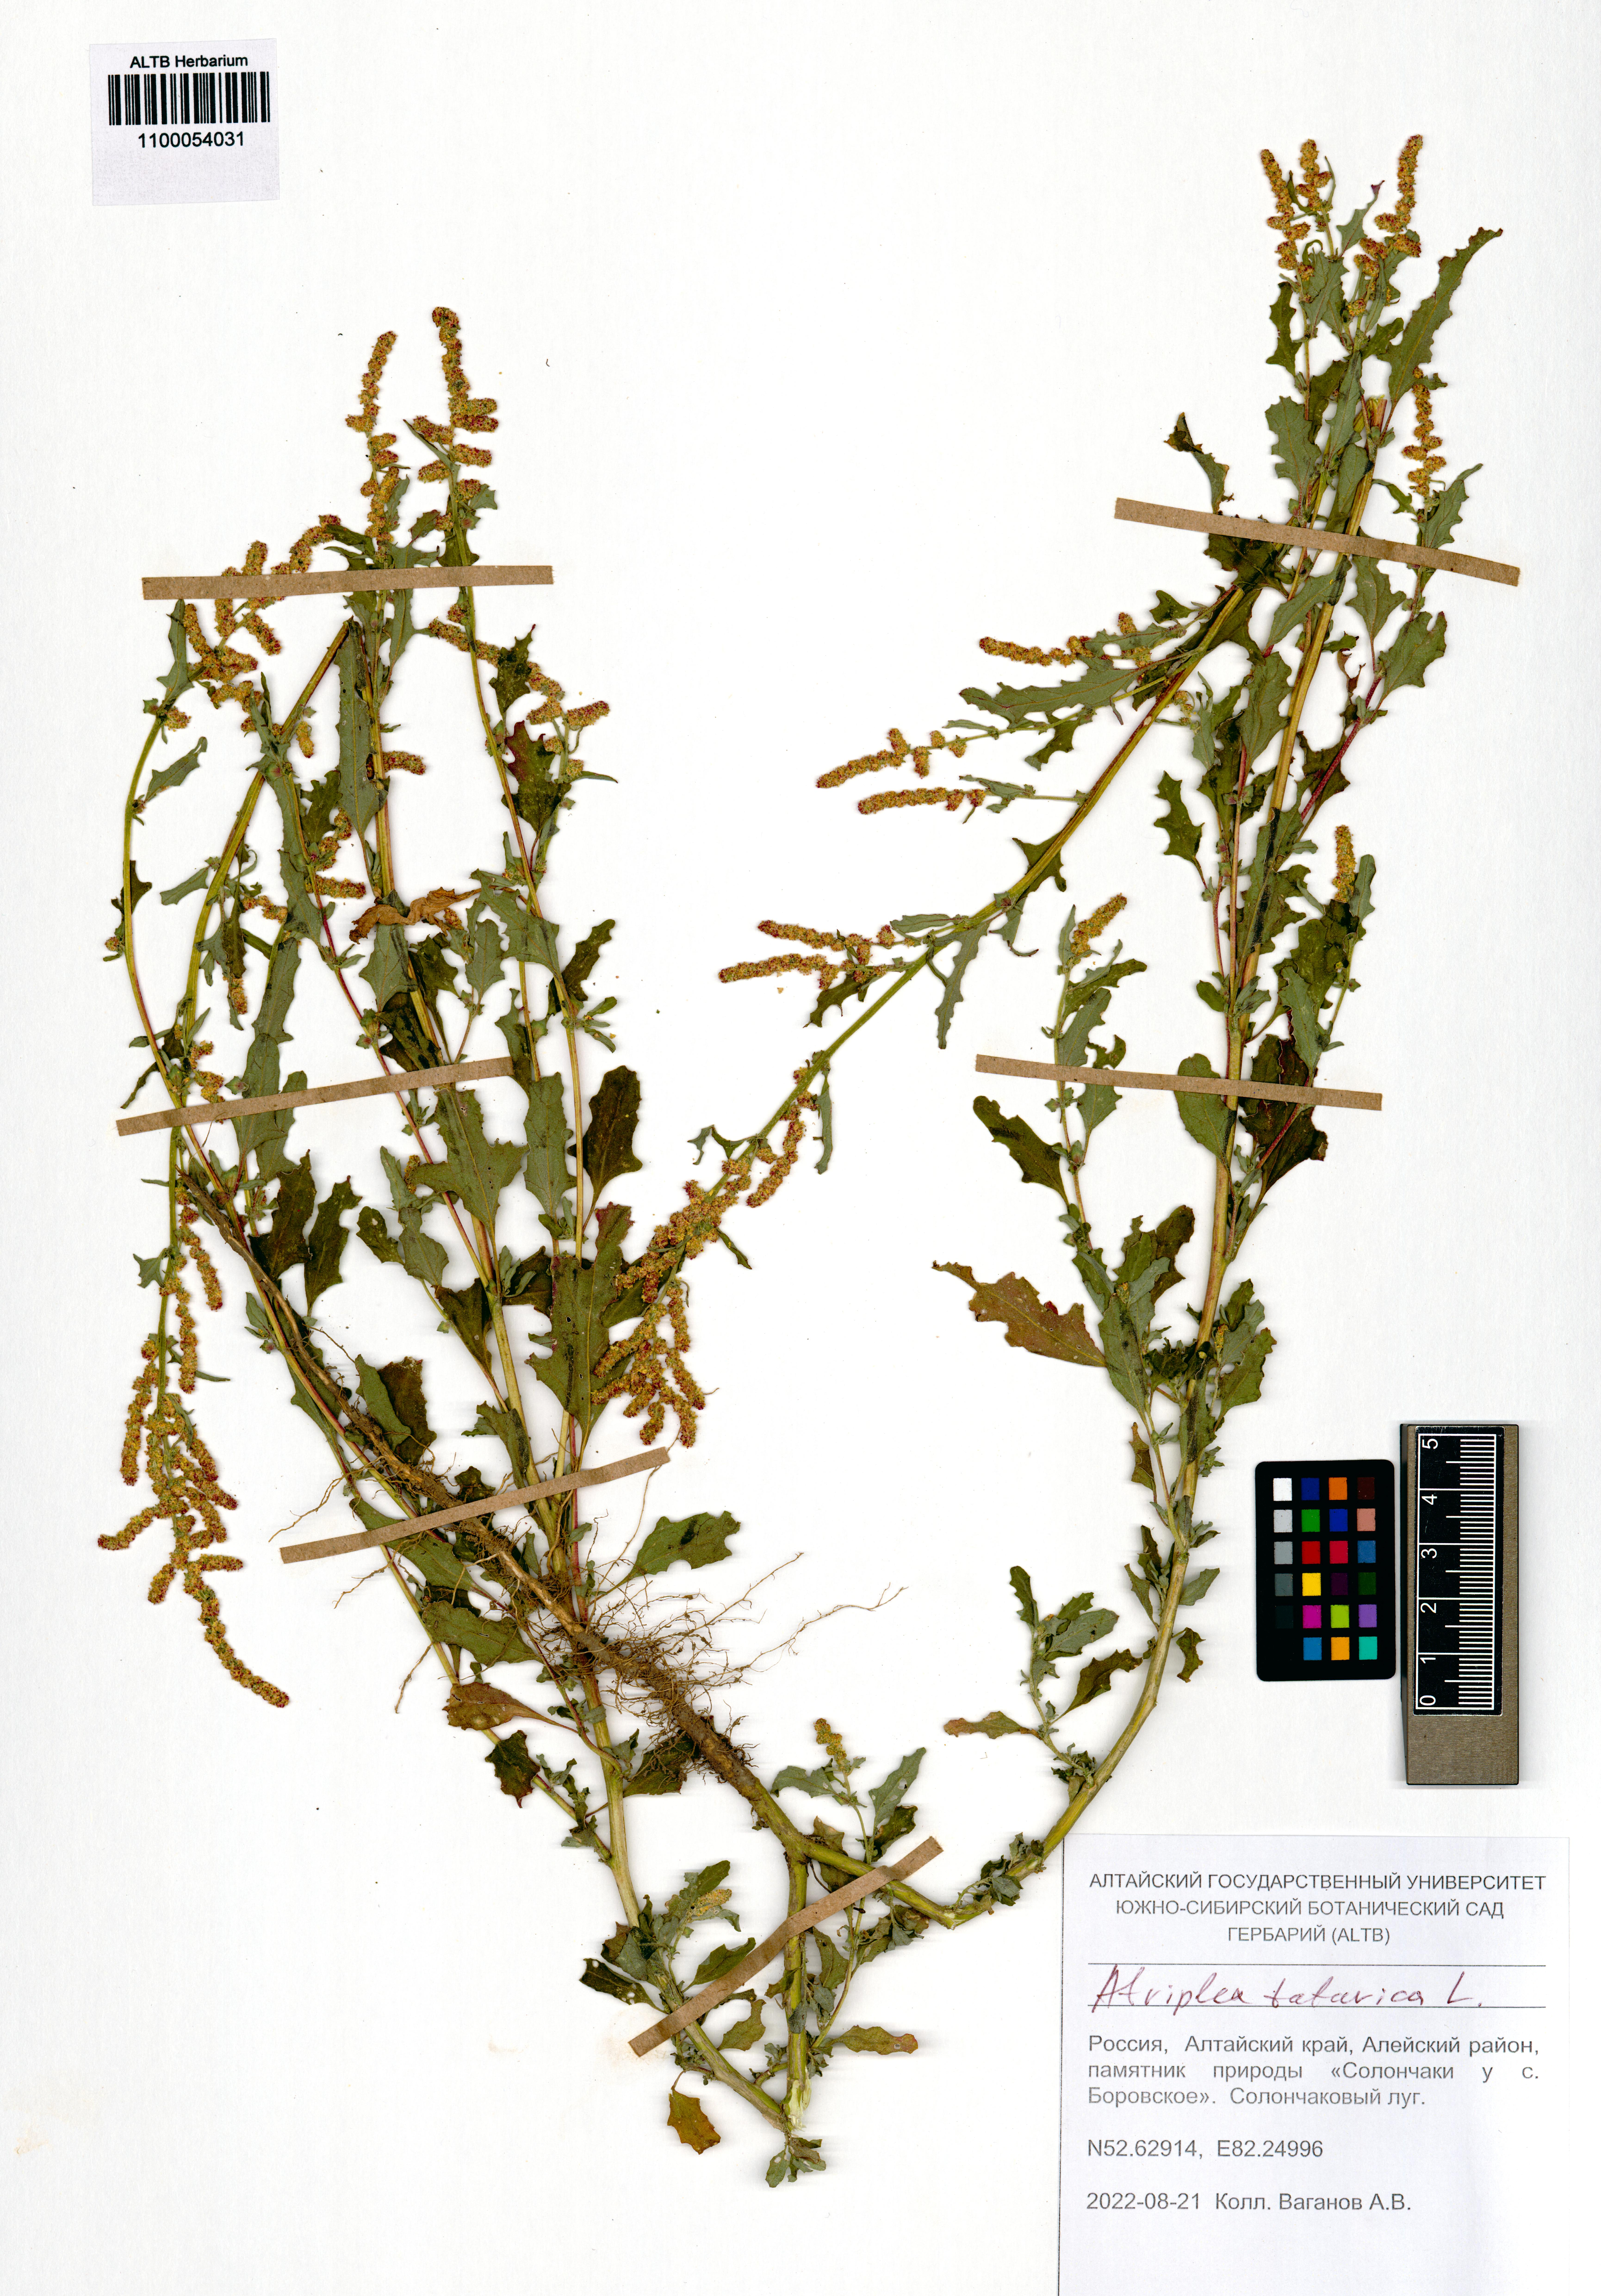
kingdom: Plantae
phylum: Tracheophyta
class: Magnoliopsida
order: Caryophyllales
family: Amaranthaceae
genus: Atriplex
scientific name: Atriplex tatarica
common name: Tatarian orache
